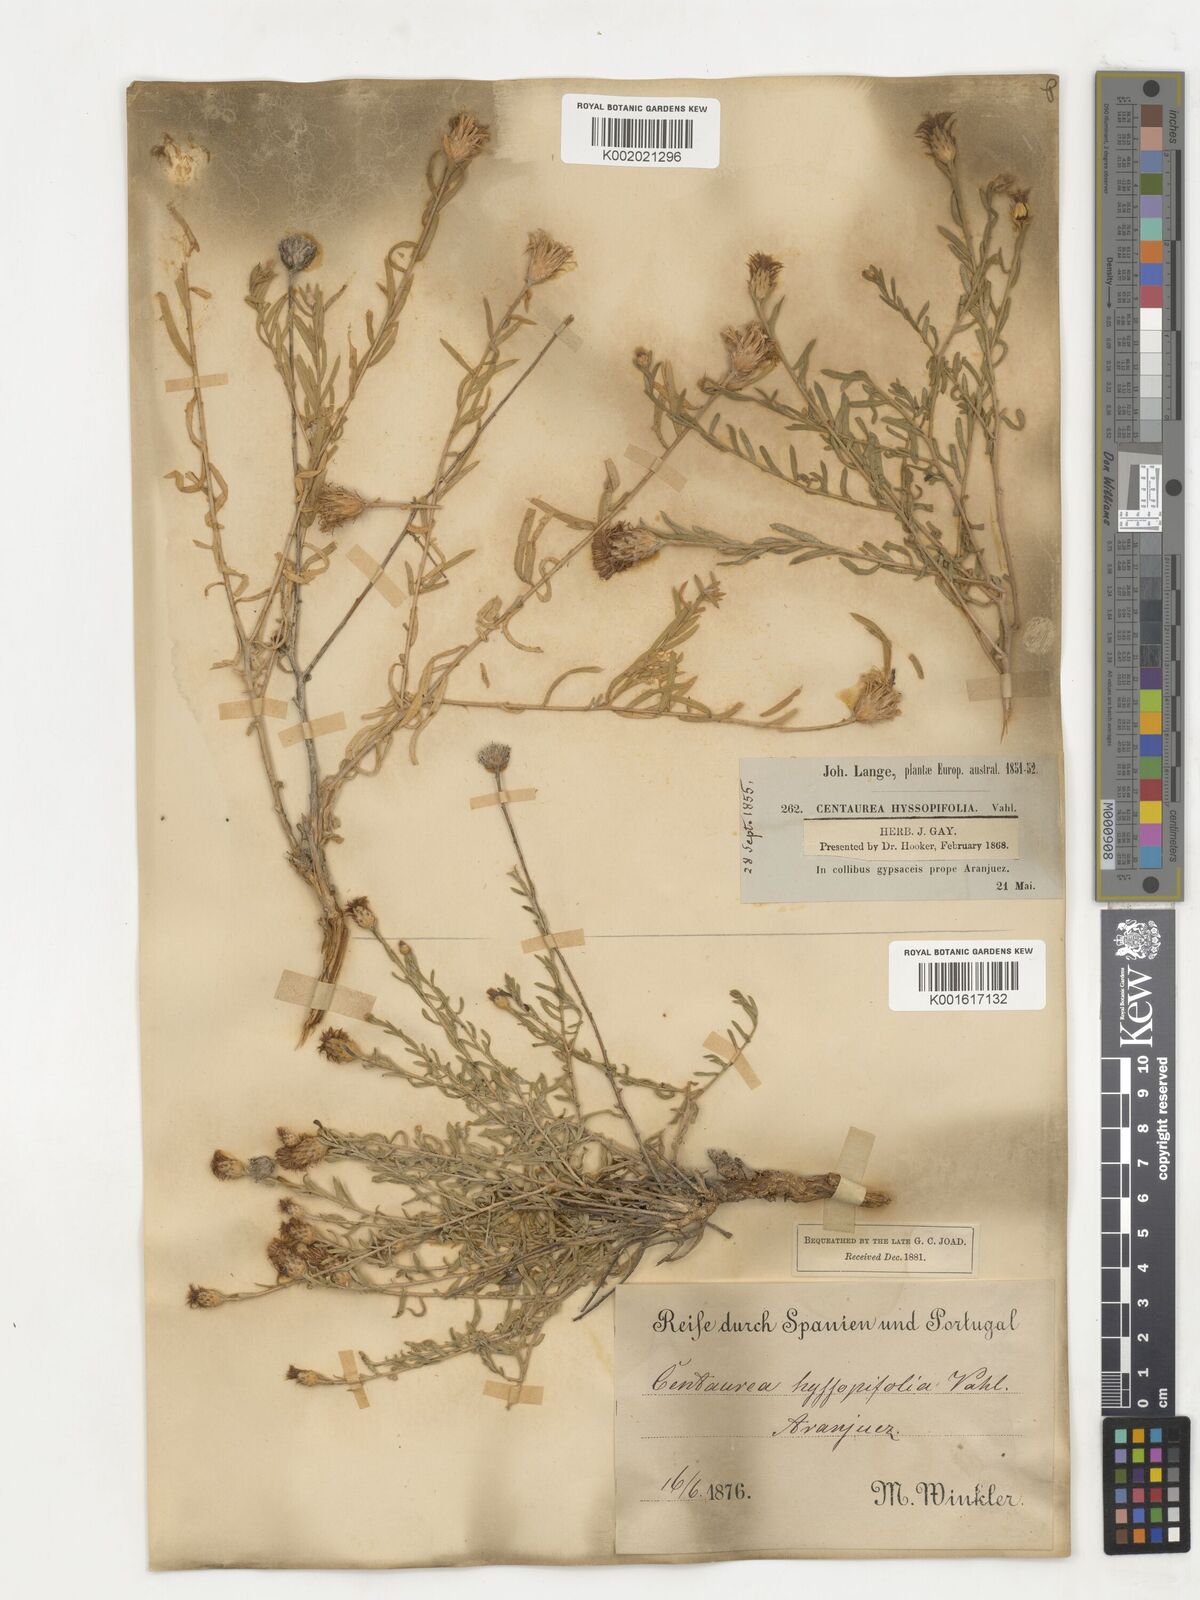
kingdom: Plantae
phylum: Tracheophyta
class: Magnoliopsida
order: Asterales
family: Asteraceae
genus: Centaurea
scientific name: Centaurea hyssopifolia
